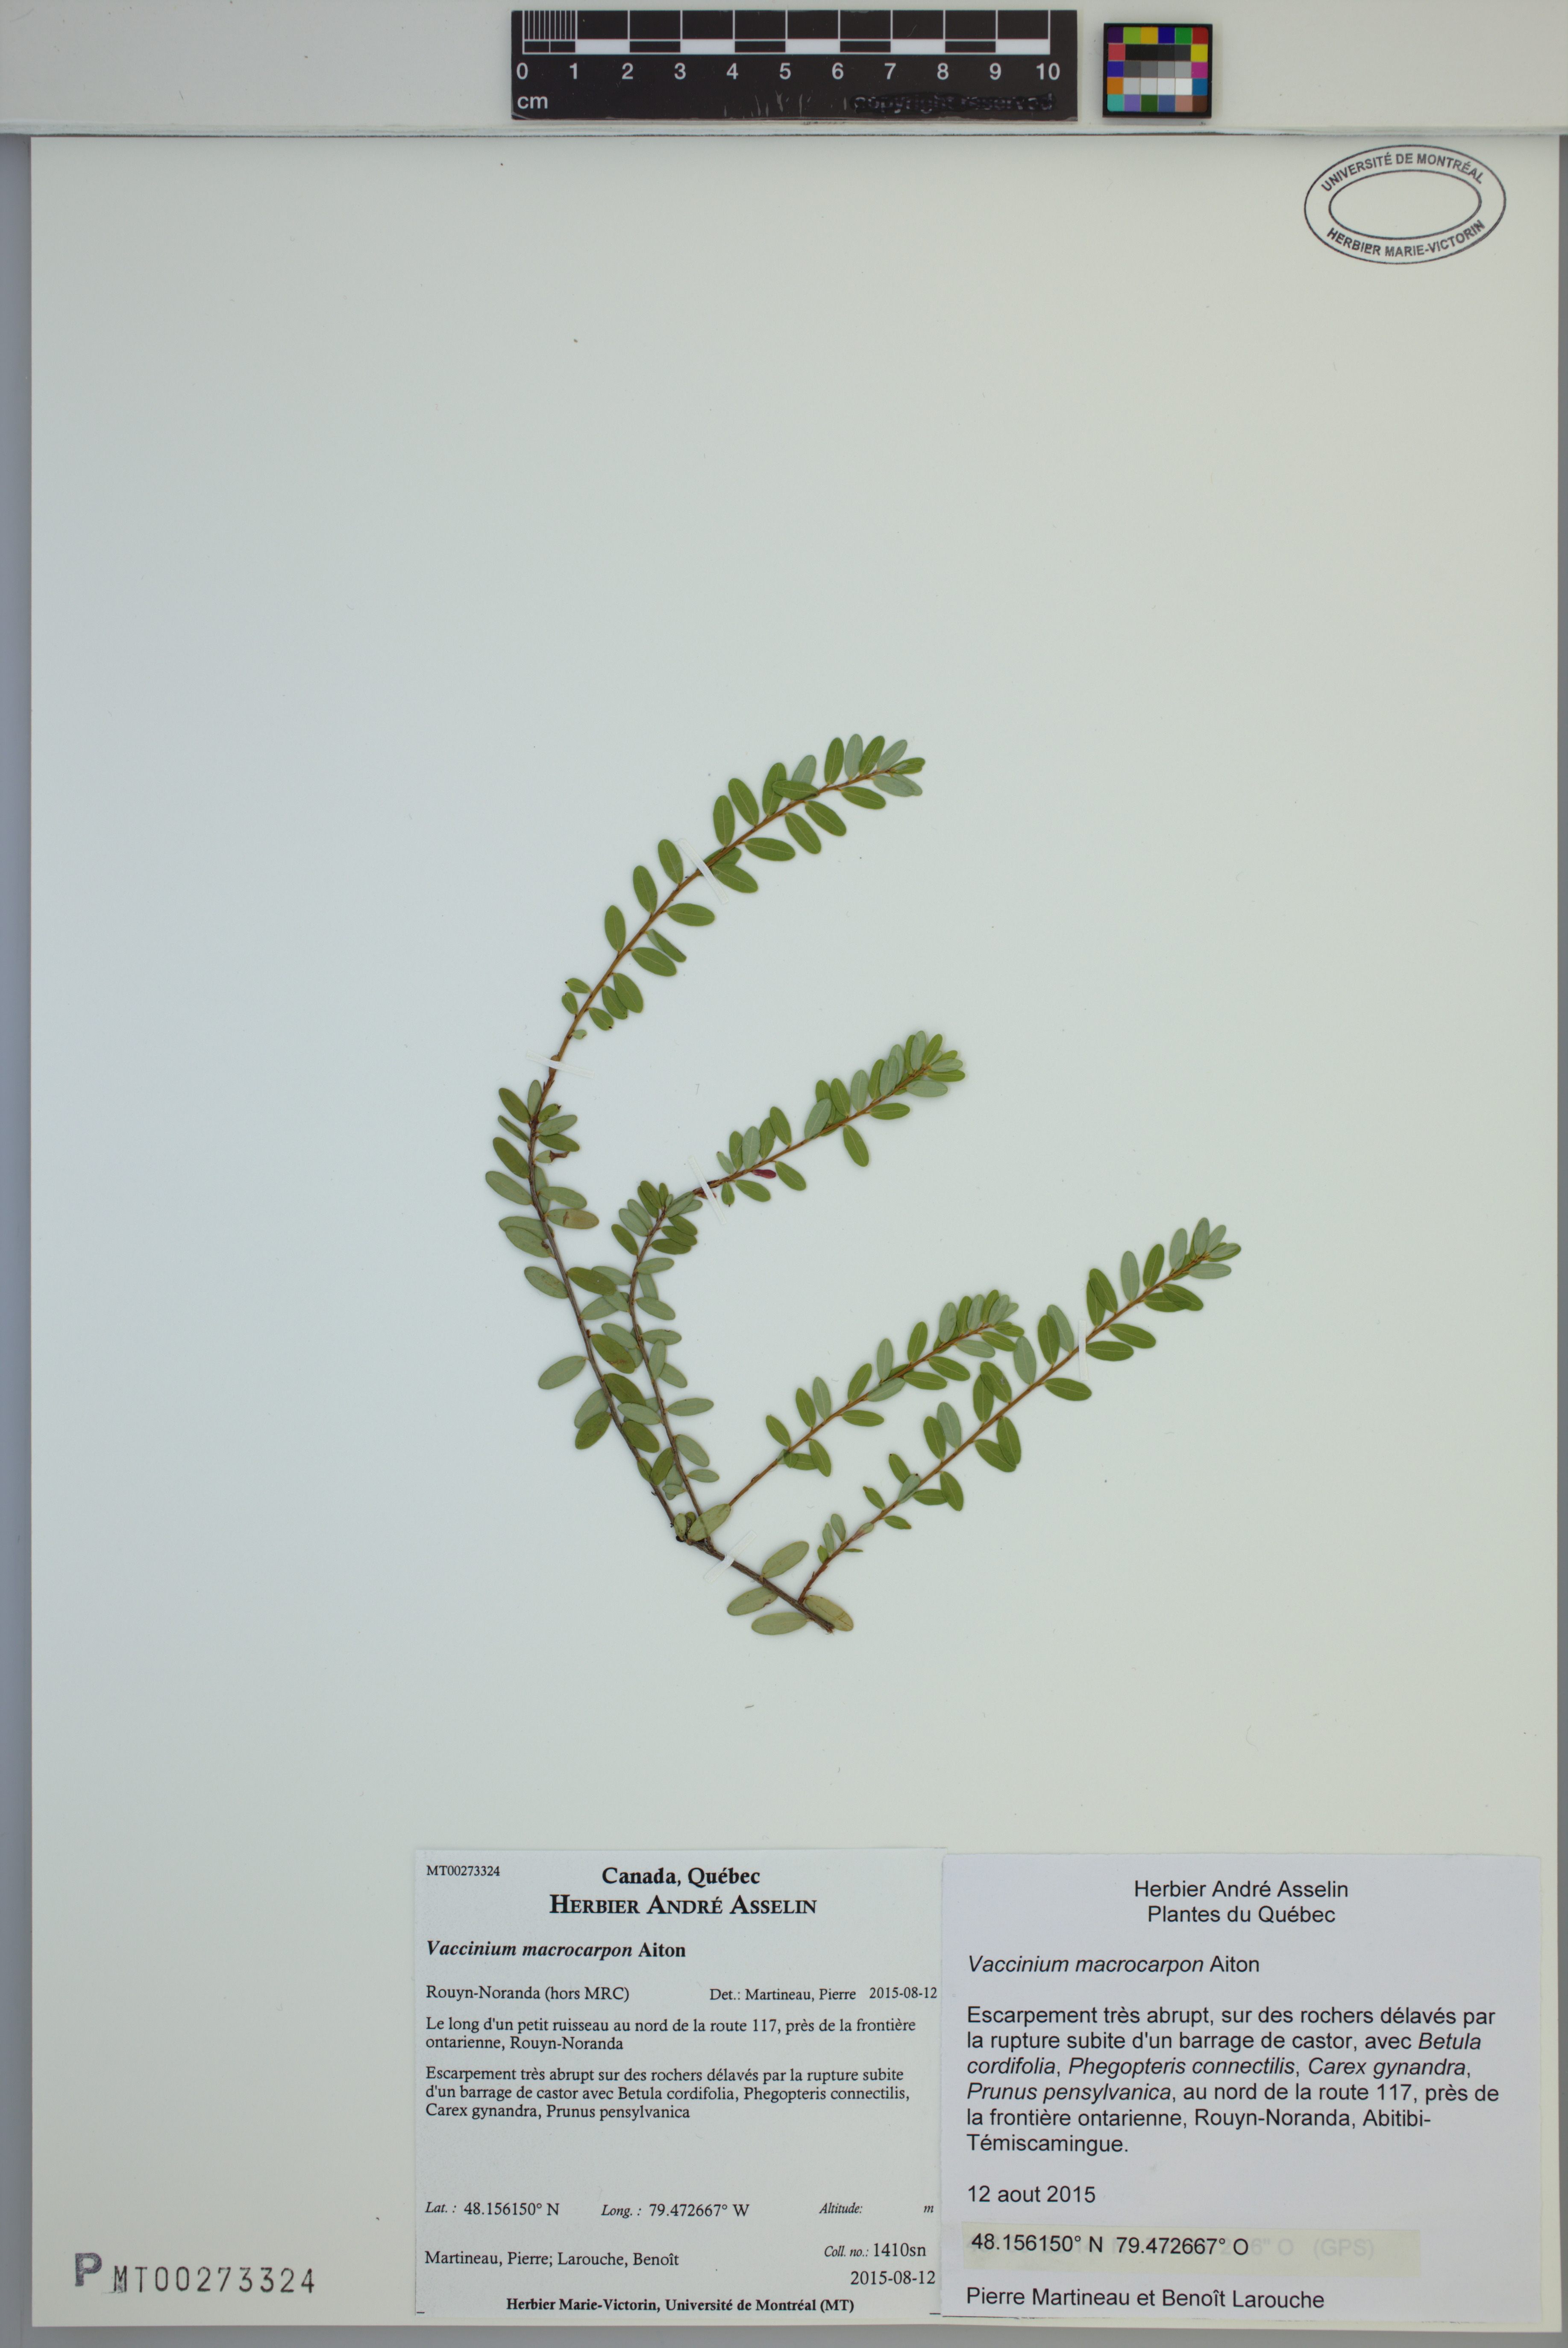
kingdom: Plantae
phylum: Tracheophyta
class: Magnoliopsida
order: Ericales
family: Ericaceae
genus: Vaccinium
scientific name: Vaccinium macrocarpon
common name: American cranberry
